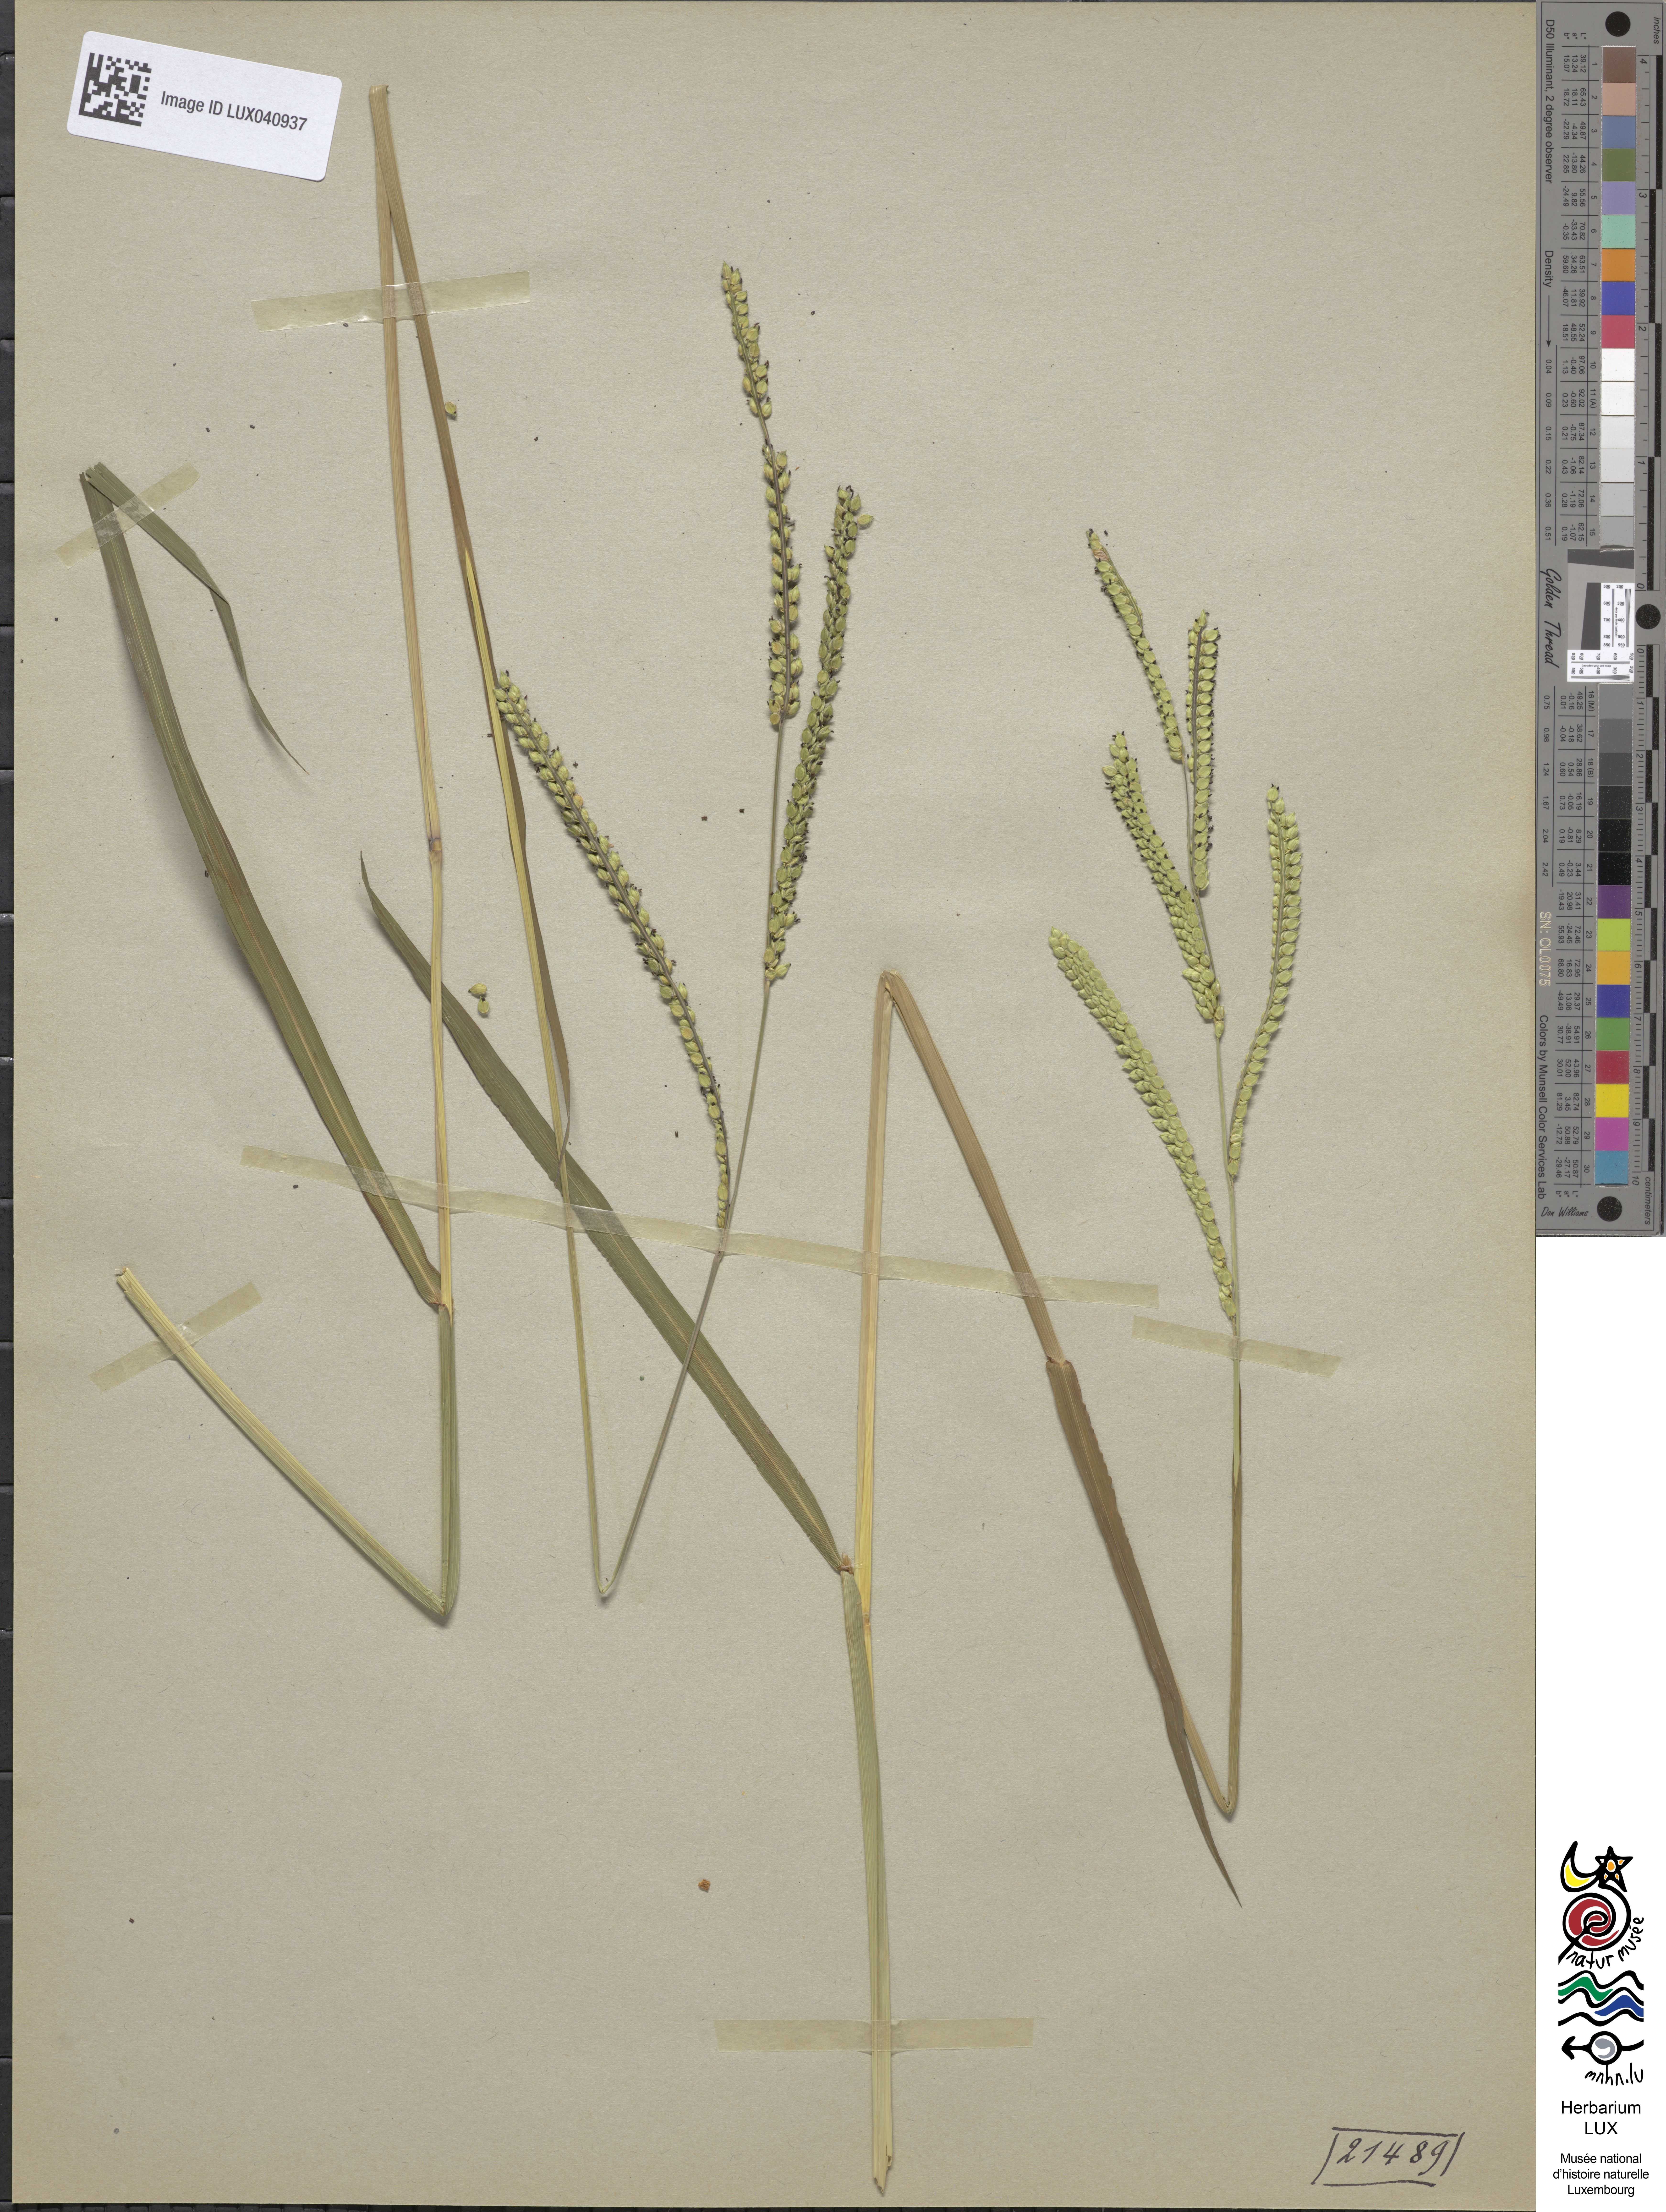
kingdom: Plantae
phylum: Tracheophyta
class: Liliopsida
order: Poales
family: Poaceae
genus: Paspalum
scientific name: Paspalum dilatatum
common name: Dallisgrass
